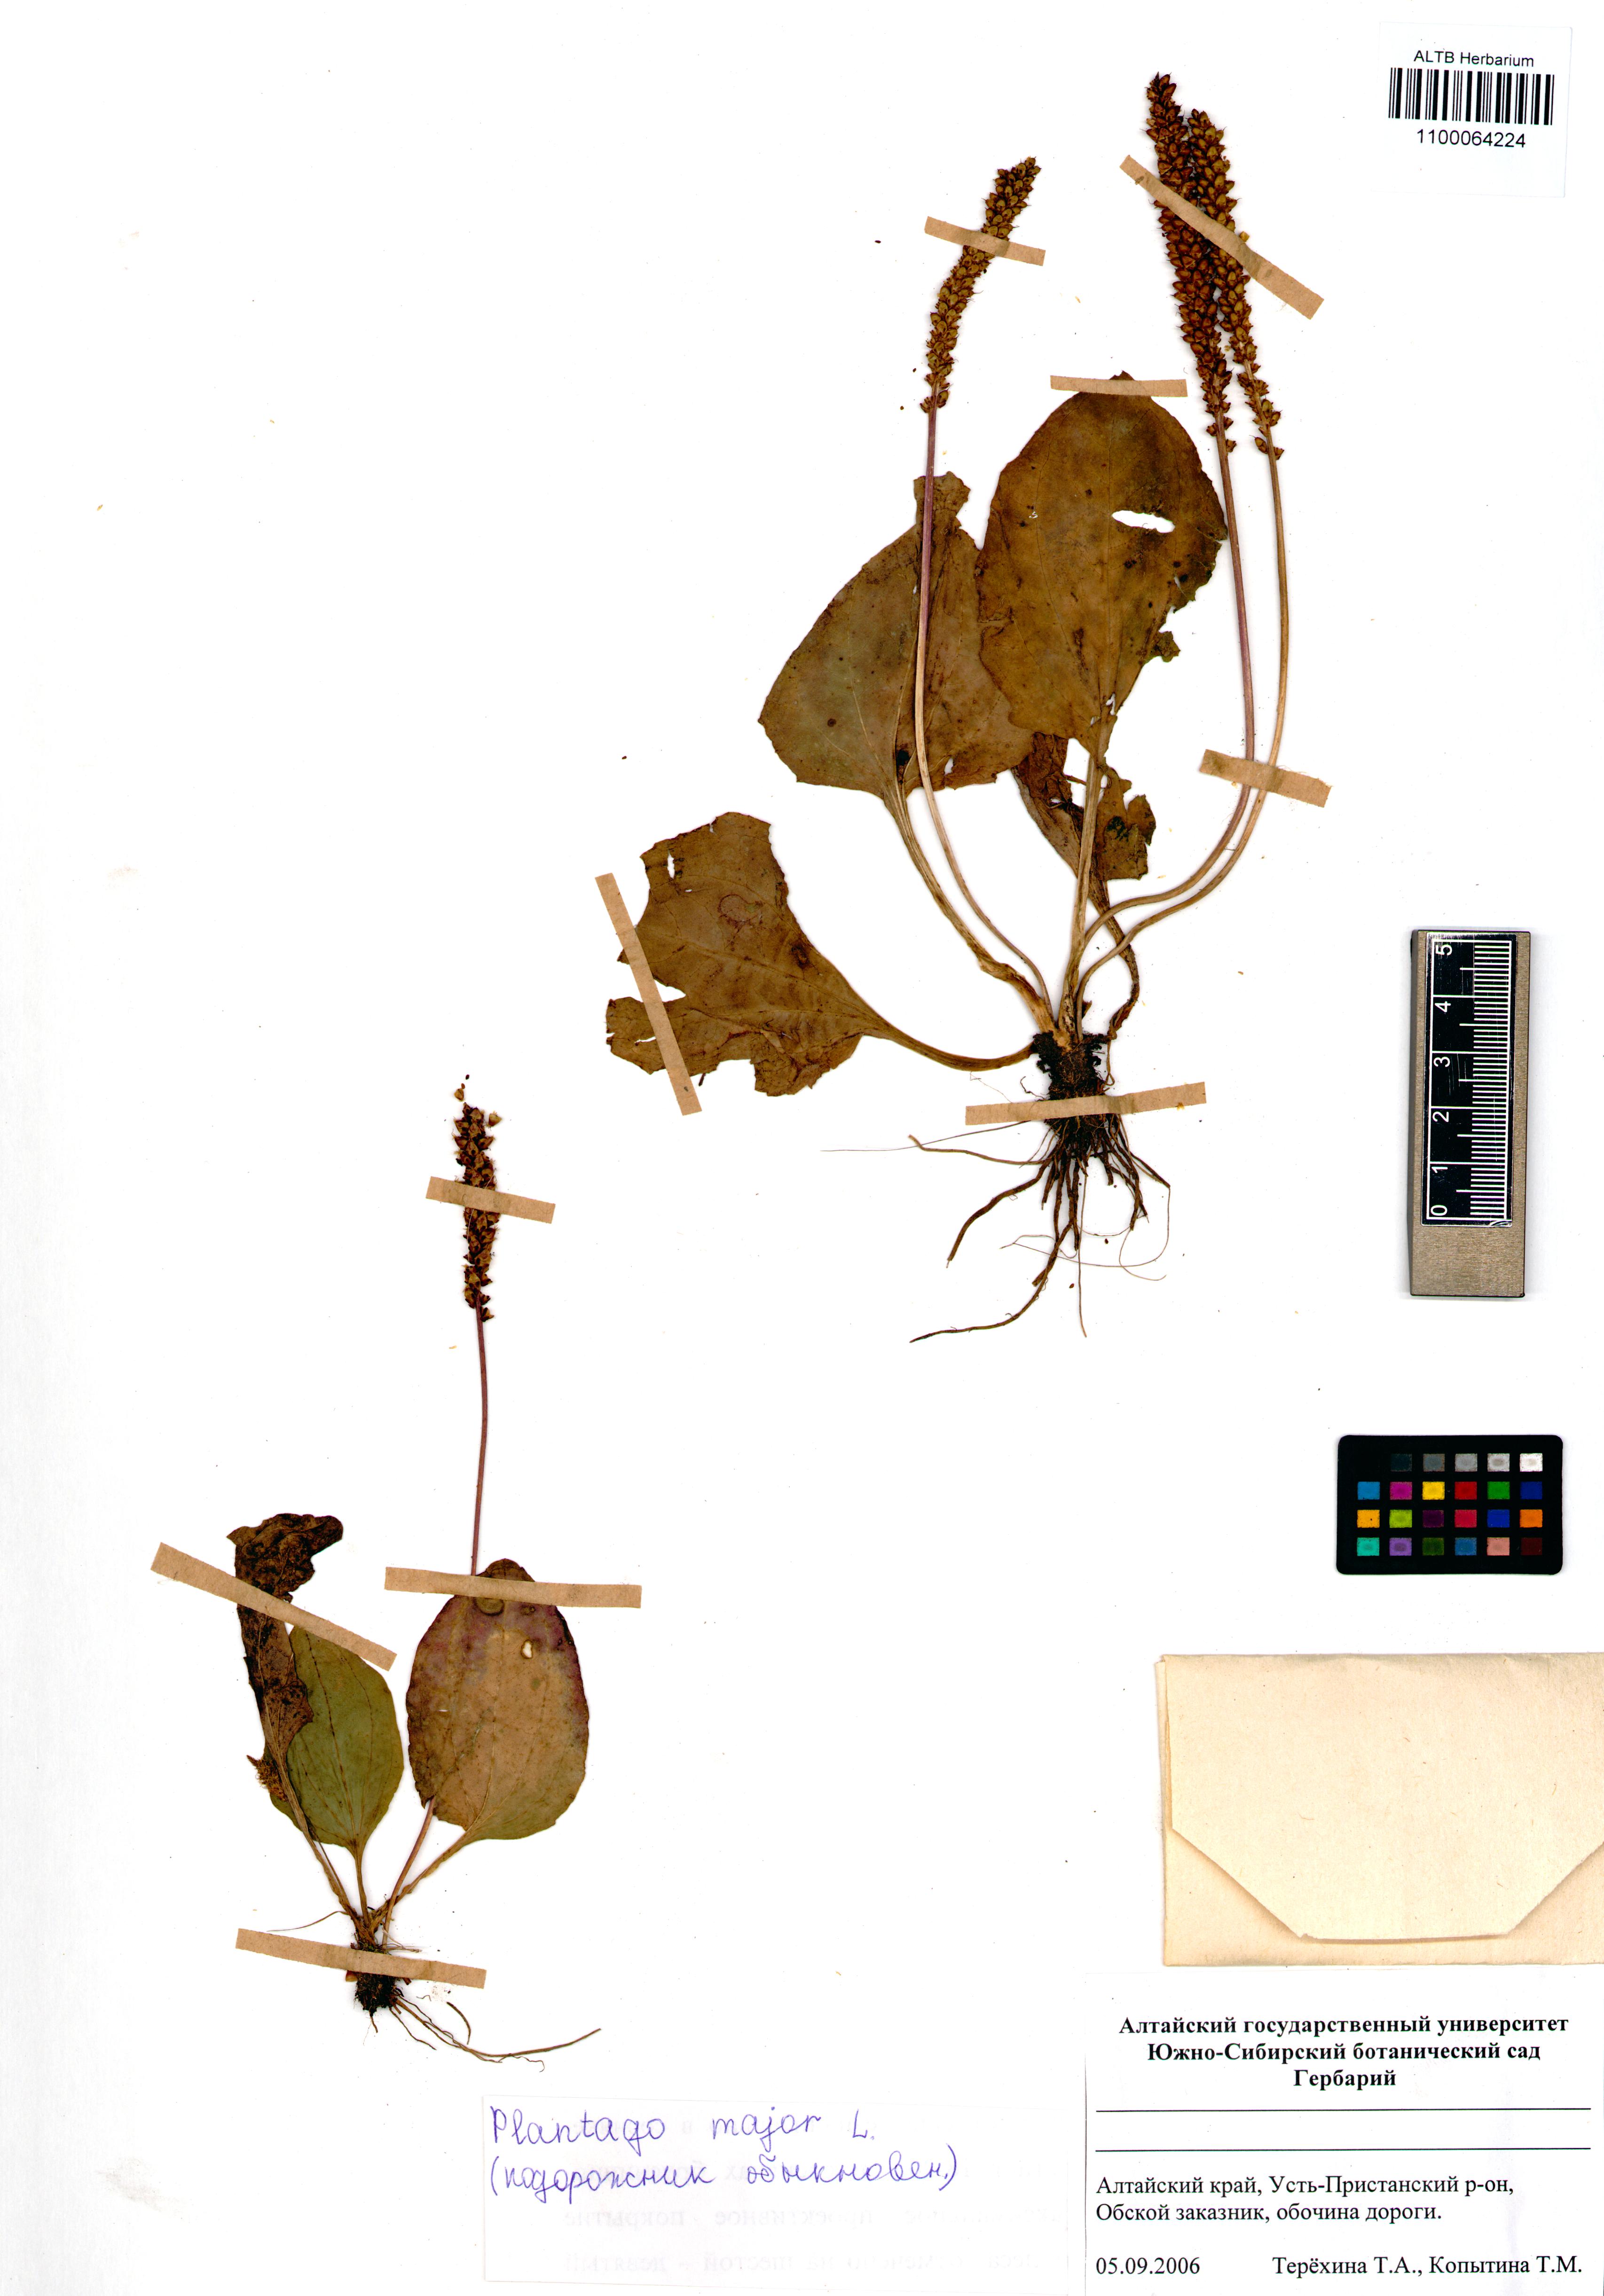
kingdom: Plantae
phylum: Tracheophyta
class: Magnoliopsida
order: Lamiales
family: Plantaginaceae
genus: Plantago
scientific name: Plantago major
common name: Common plantain
